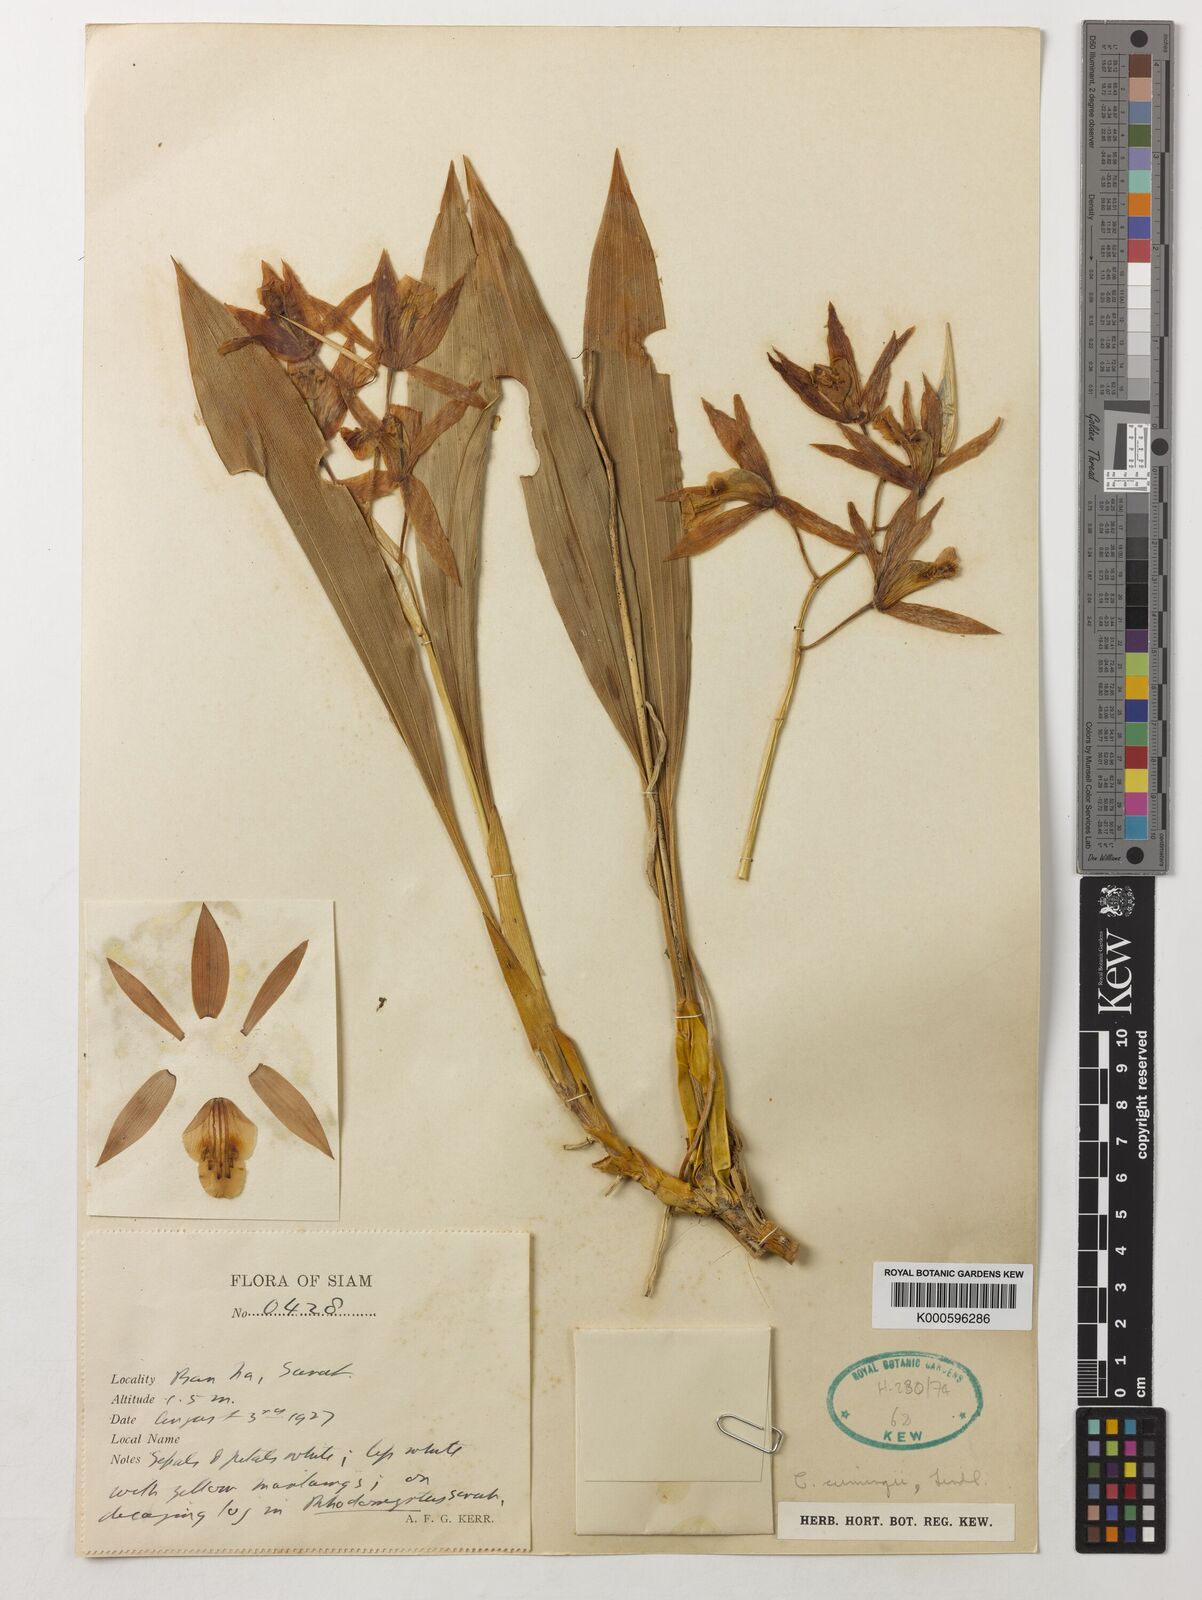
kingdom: Plantae
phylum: Tracheophyta
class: Liliopsida
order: Asparagales
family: Orchidaceae
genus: Coelogyne
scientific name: Coelogyne cumingii
